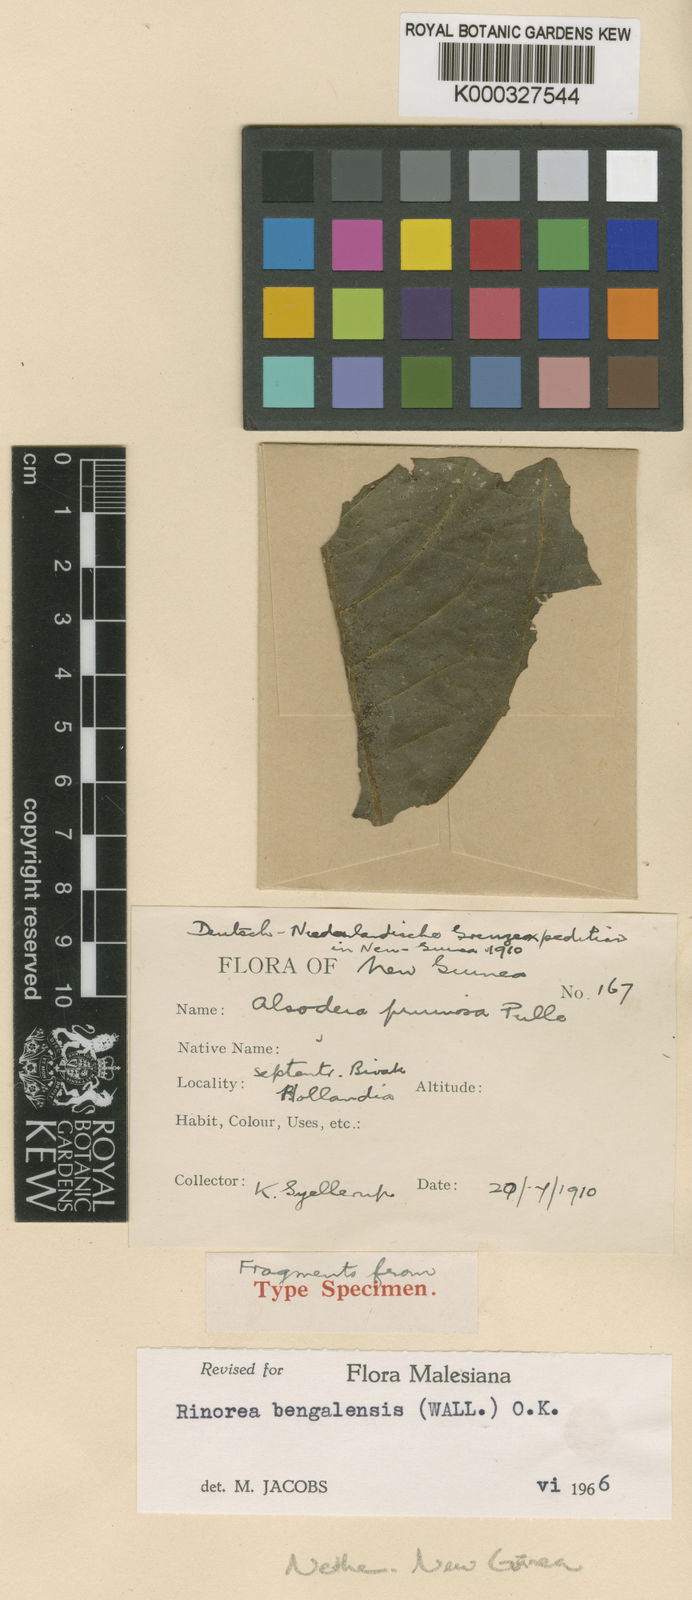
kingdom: Plantae
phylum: Tracheophyta
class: Magnoliopsida
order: Malpighiales
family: Violaceae
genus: Rinorea
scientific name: Rinorea pruinosa
